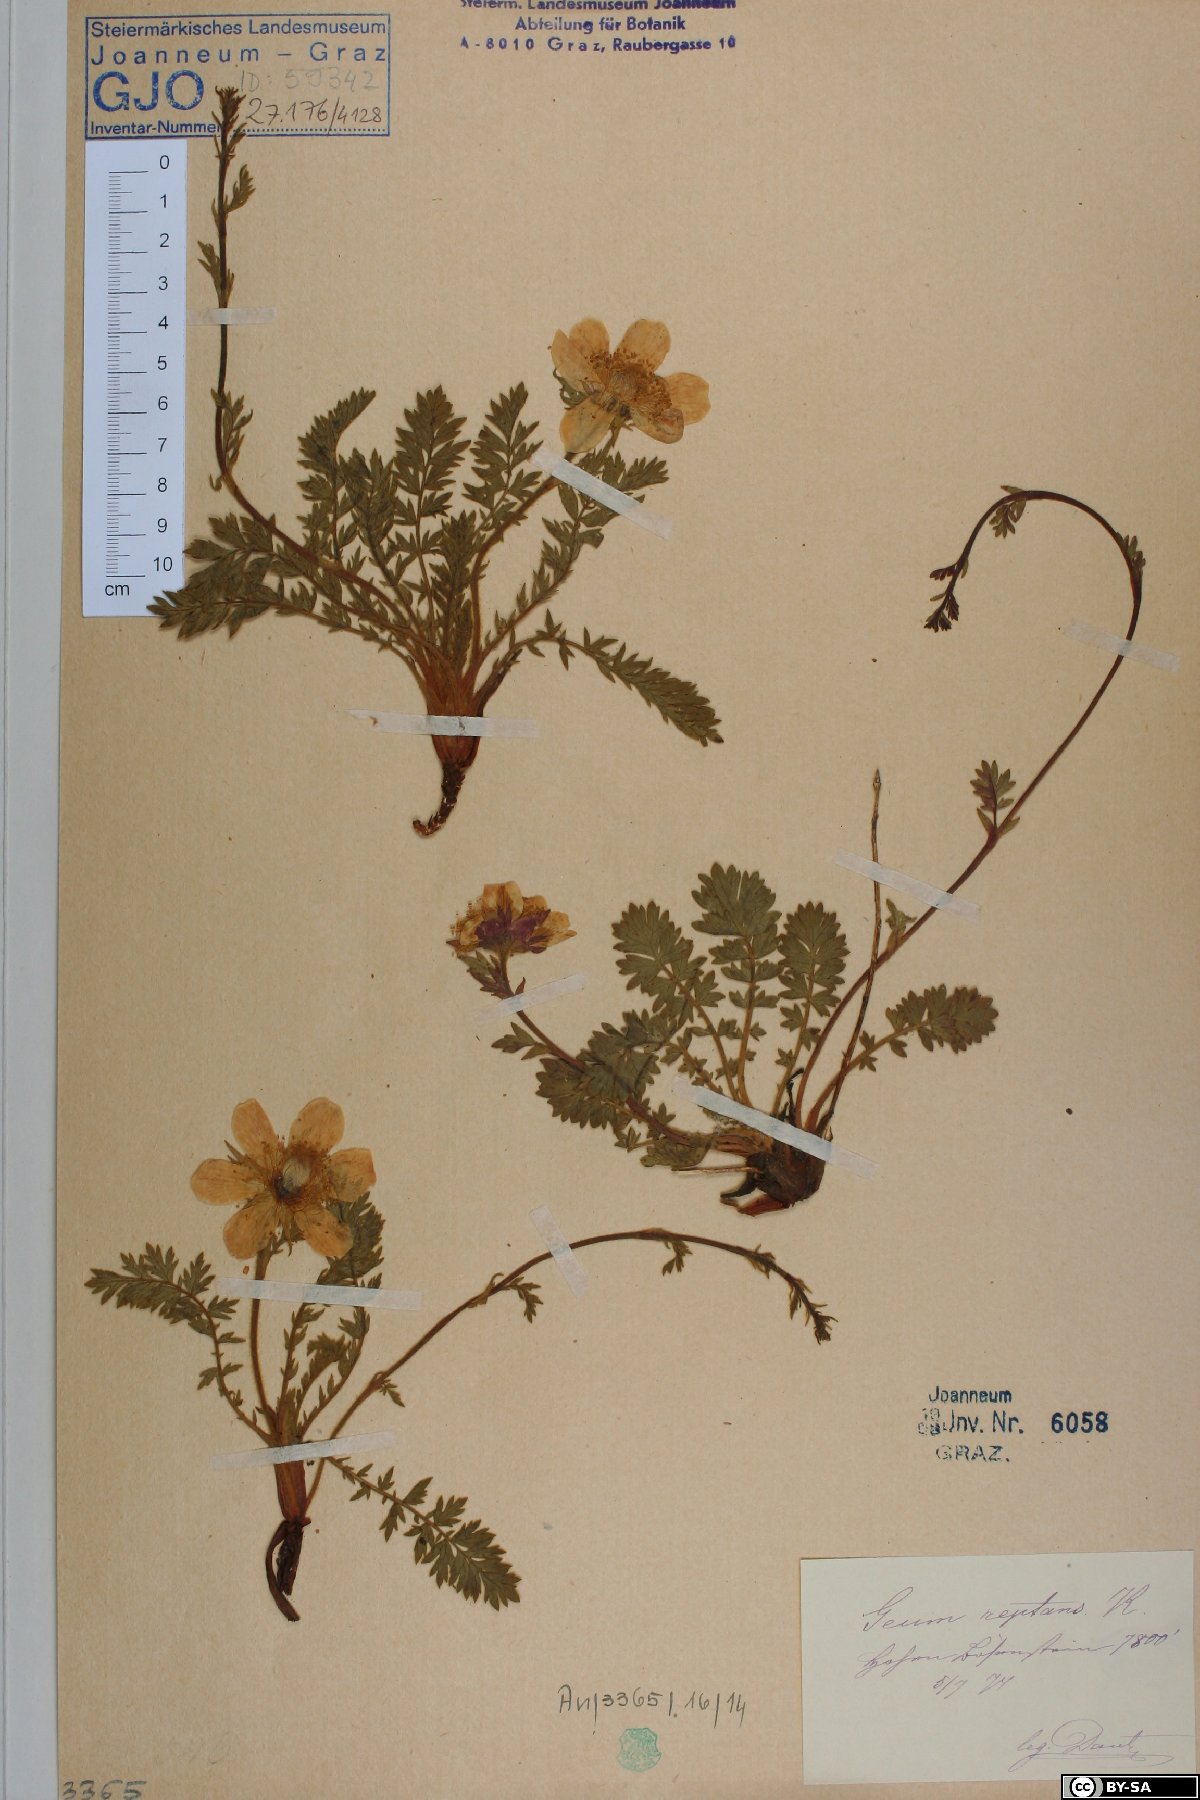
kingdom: Plantae
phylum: Tracheophyta
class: Magnoliopsida
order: Rosales
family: Rosaceae
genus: Geum
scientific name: Geum reptans
